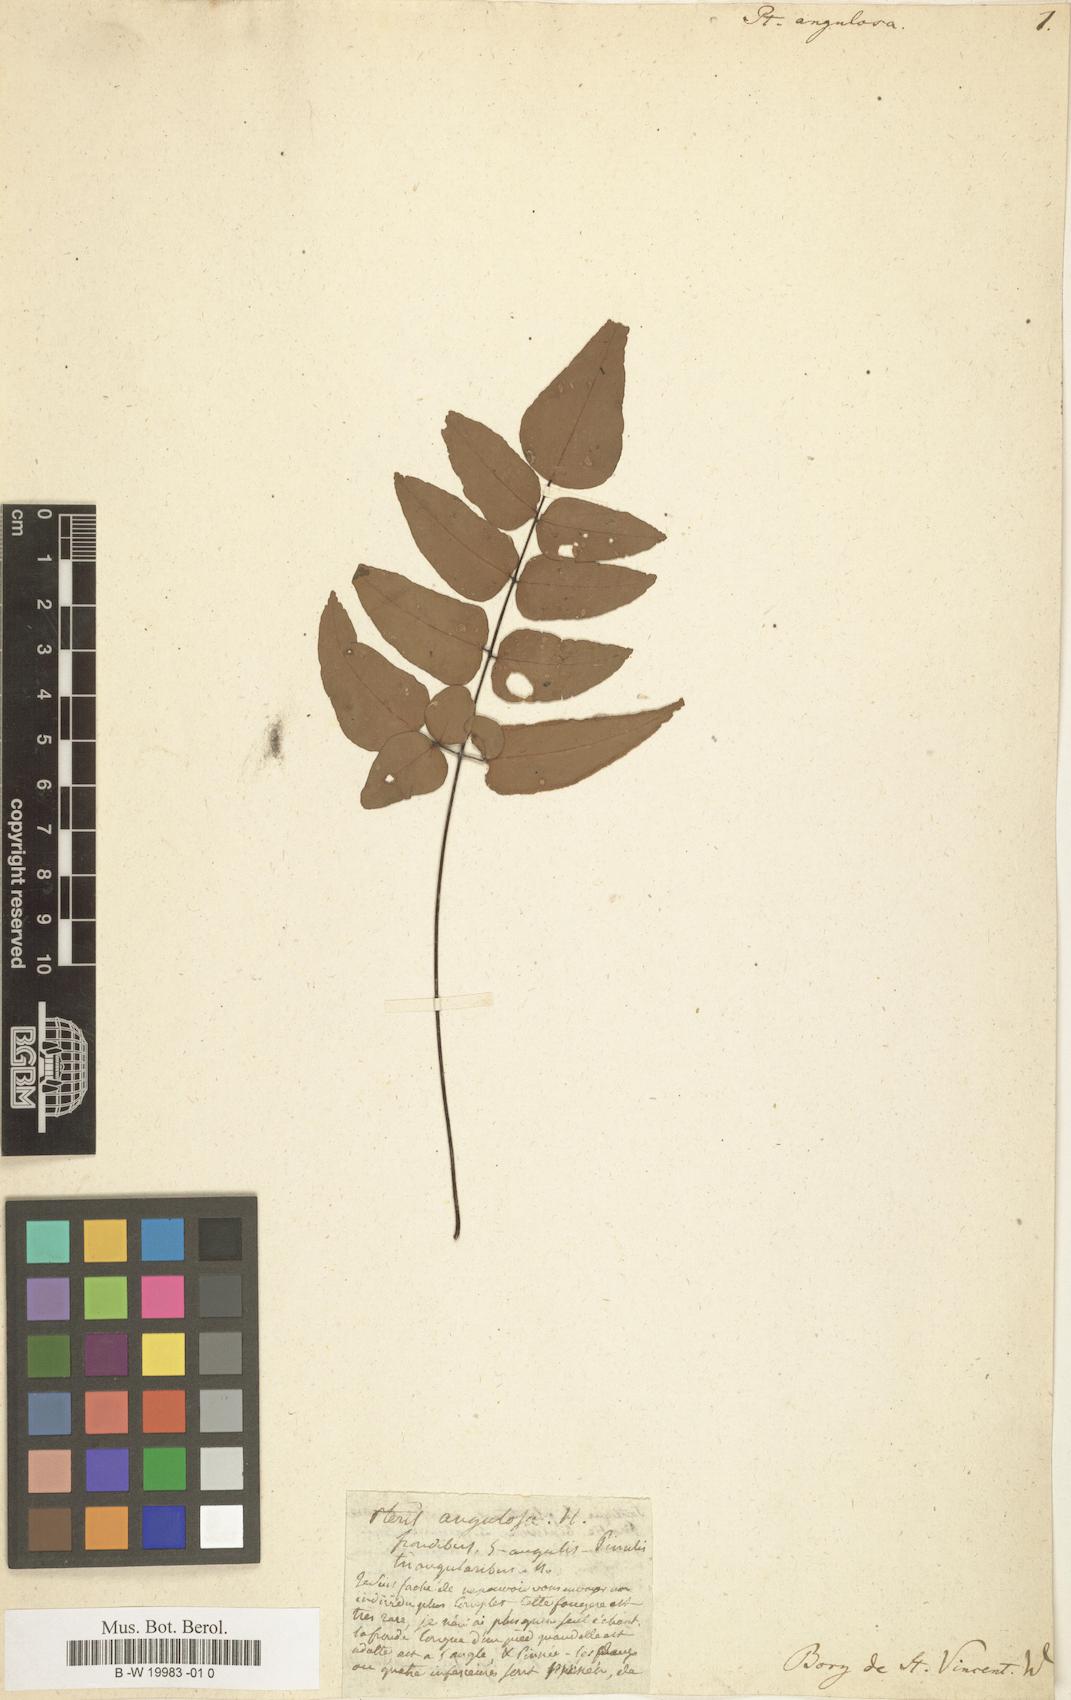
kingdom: Plantae
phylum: Tracheophyta
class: Polypodiopsida
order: Polypodiales
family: Pteridaceae
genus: Pellaea
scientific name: Pellaea angulosa
